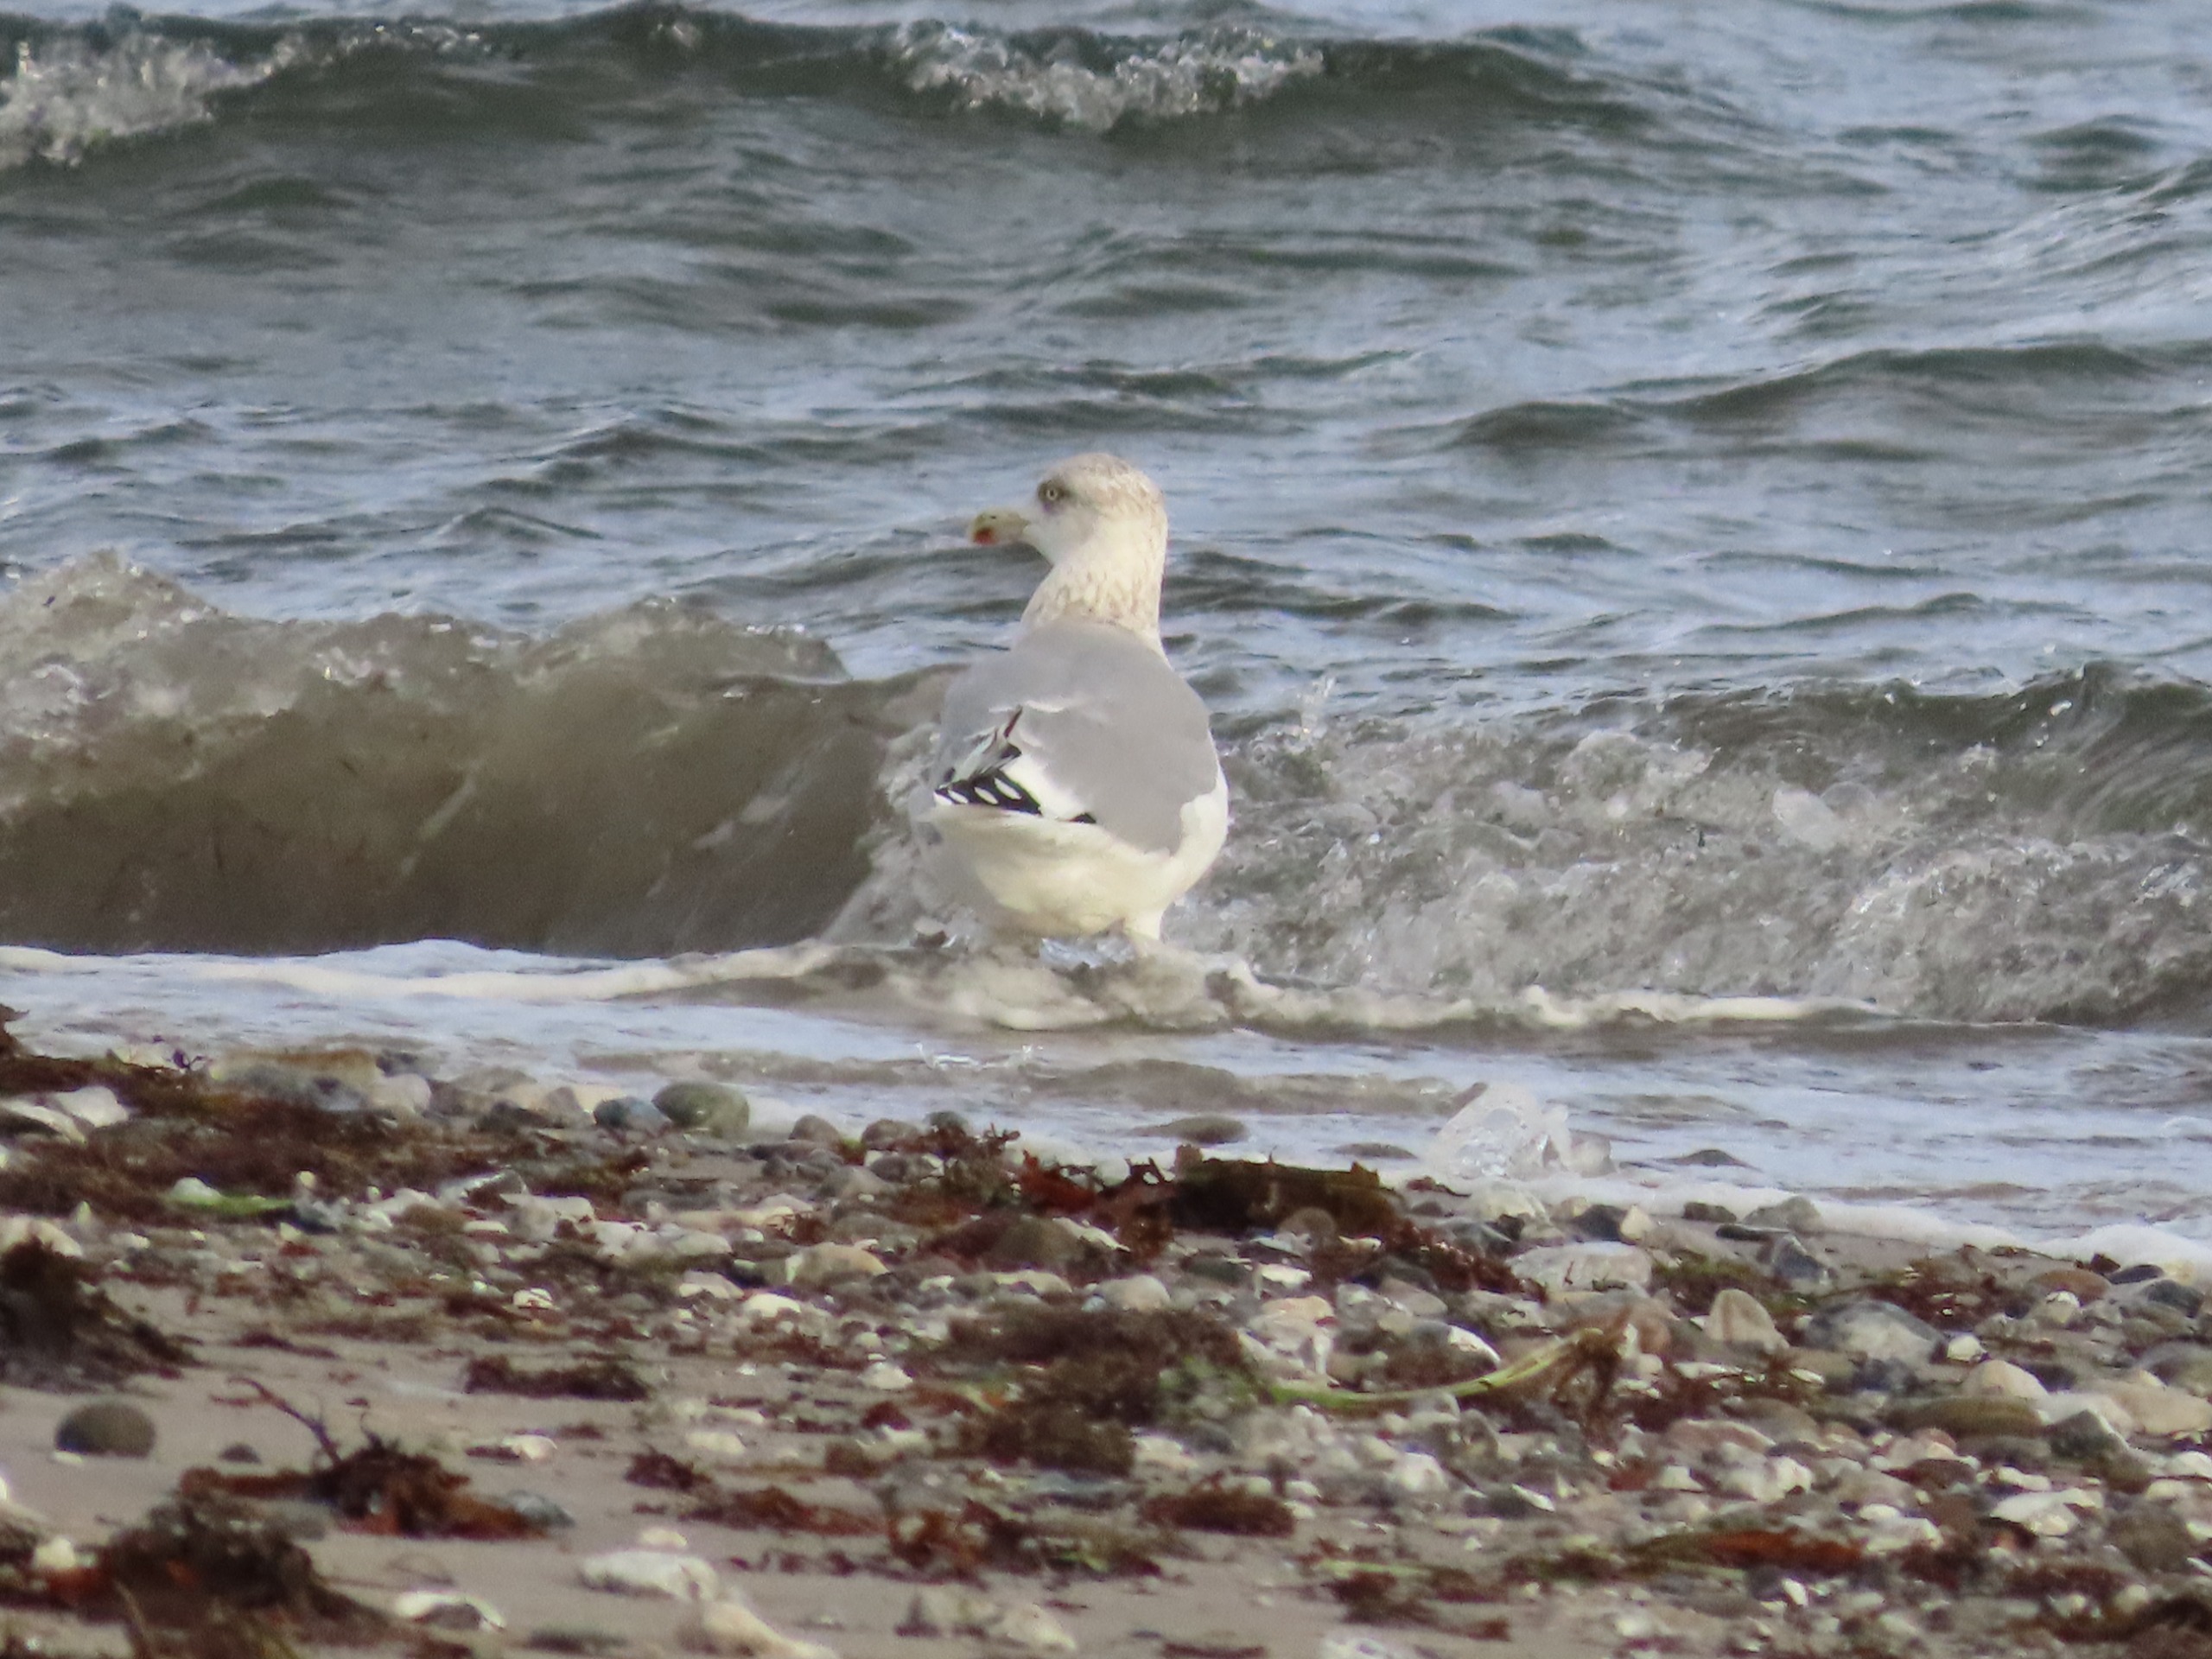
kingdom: Animalia
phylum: Chordata
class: Aves
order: Charadriiformes
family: Laridae
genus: Larus
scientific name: Larus argentatus
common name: Sølvmåge
